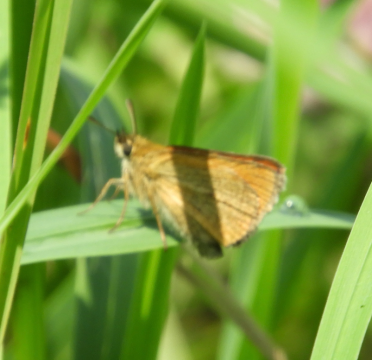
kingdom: Animalia
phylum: Arthropoda
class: Insecta
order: Lepidoptera
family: Hesperiidae
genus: Thymelicus
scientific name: Thymelicus lineola
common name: European Skipper
